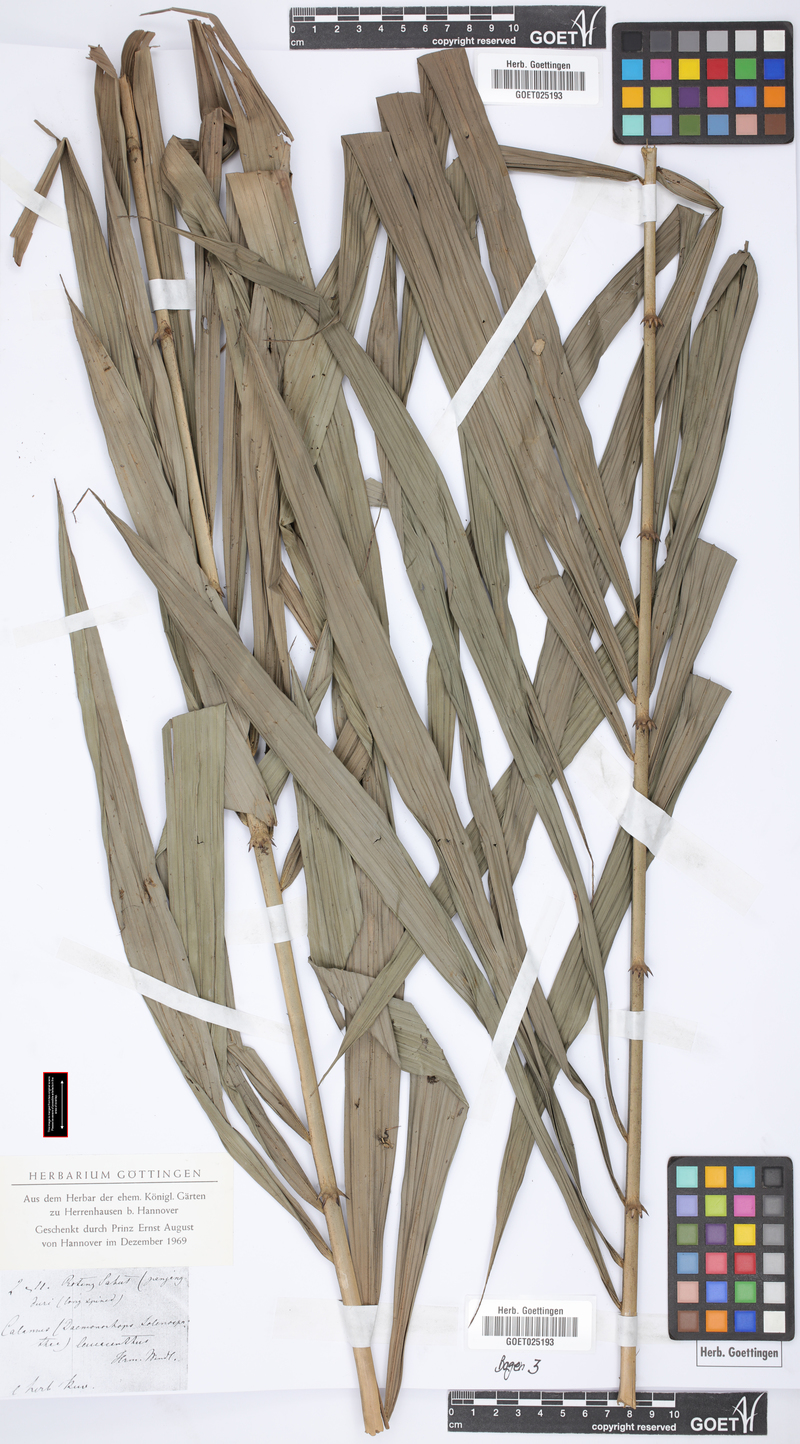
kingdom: Plantae
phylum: Tracheophyta
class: Liliopsida
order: Arecales
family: Arecaceae
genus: Calamus
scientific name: Calamus
